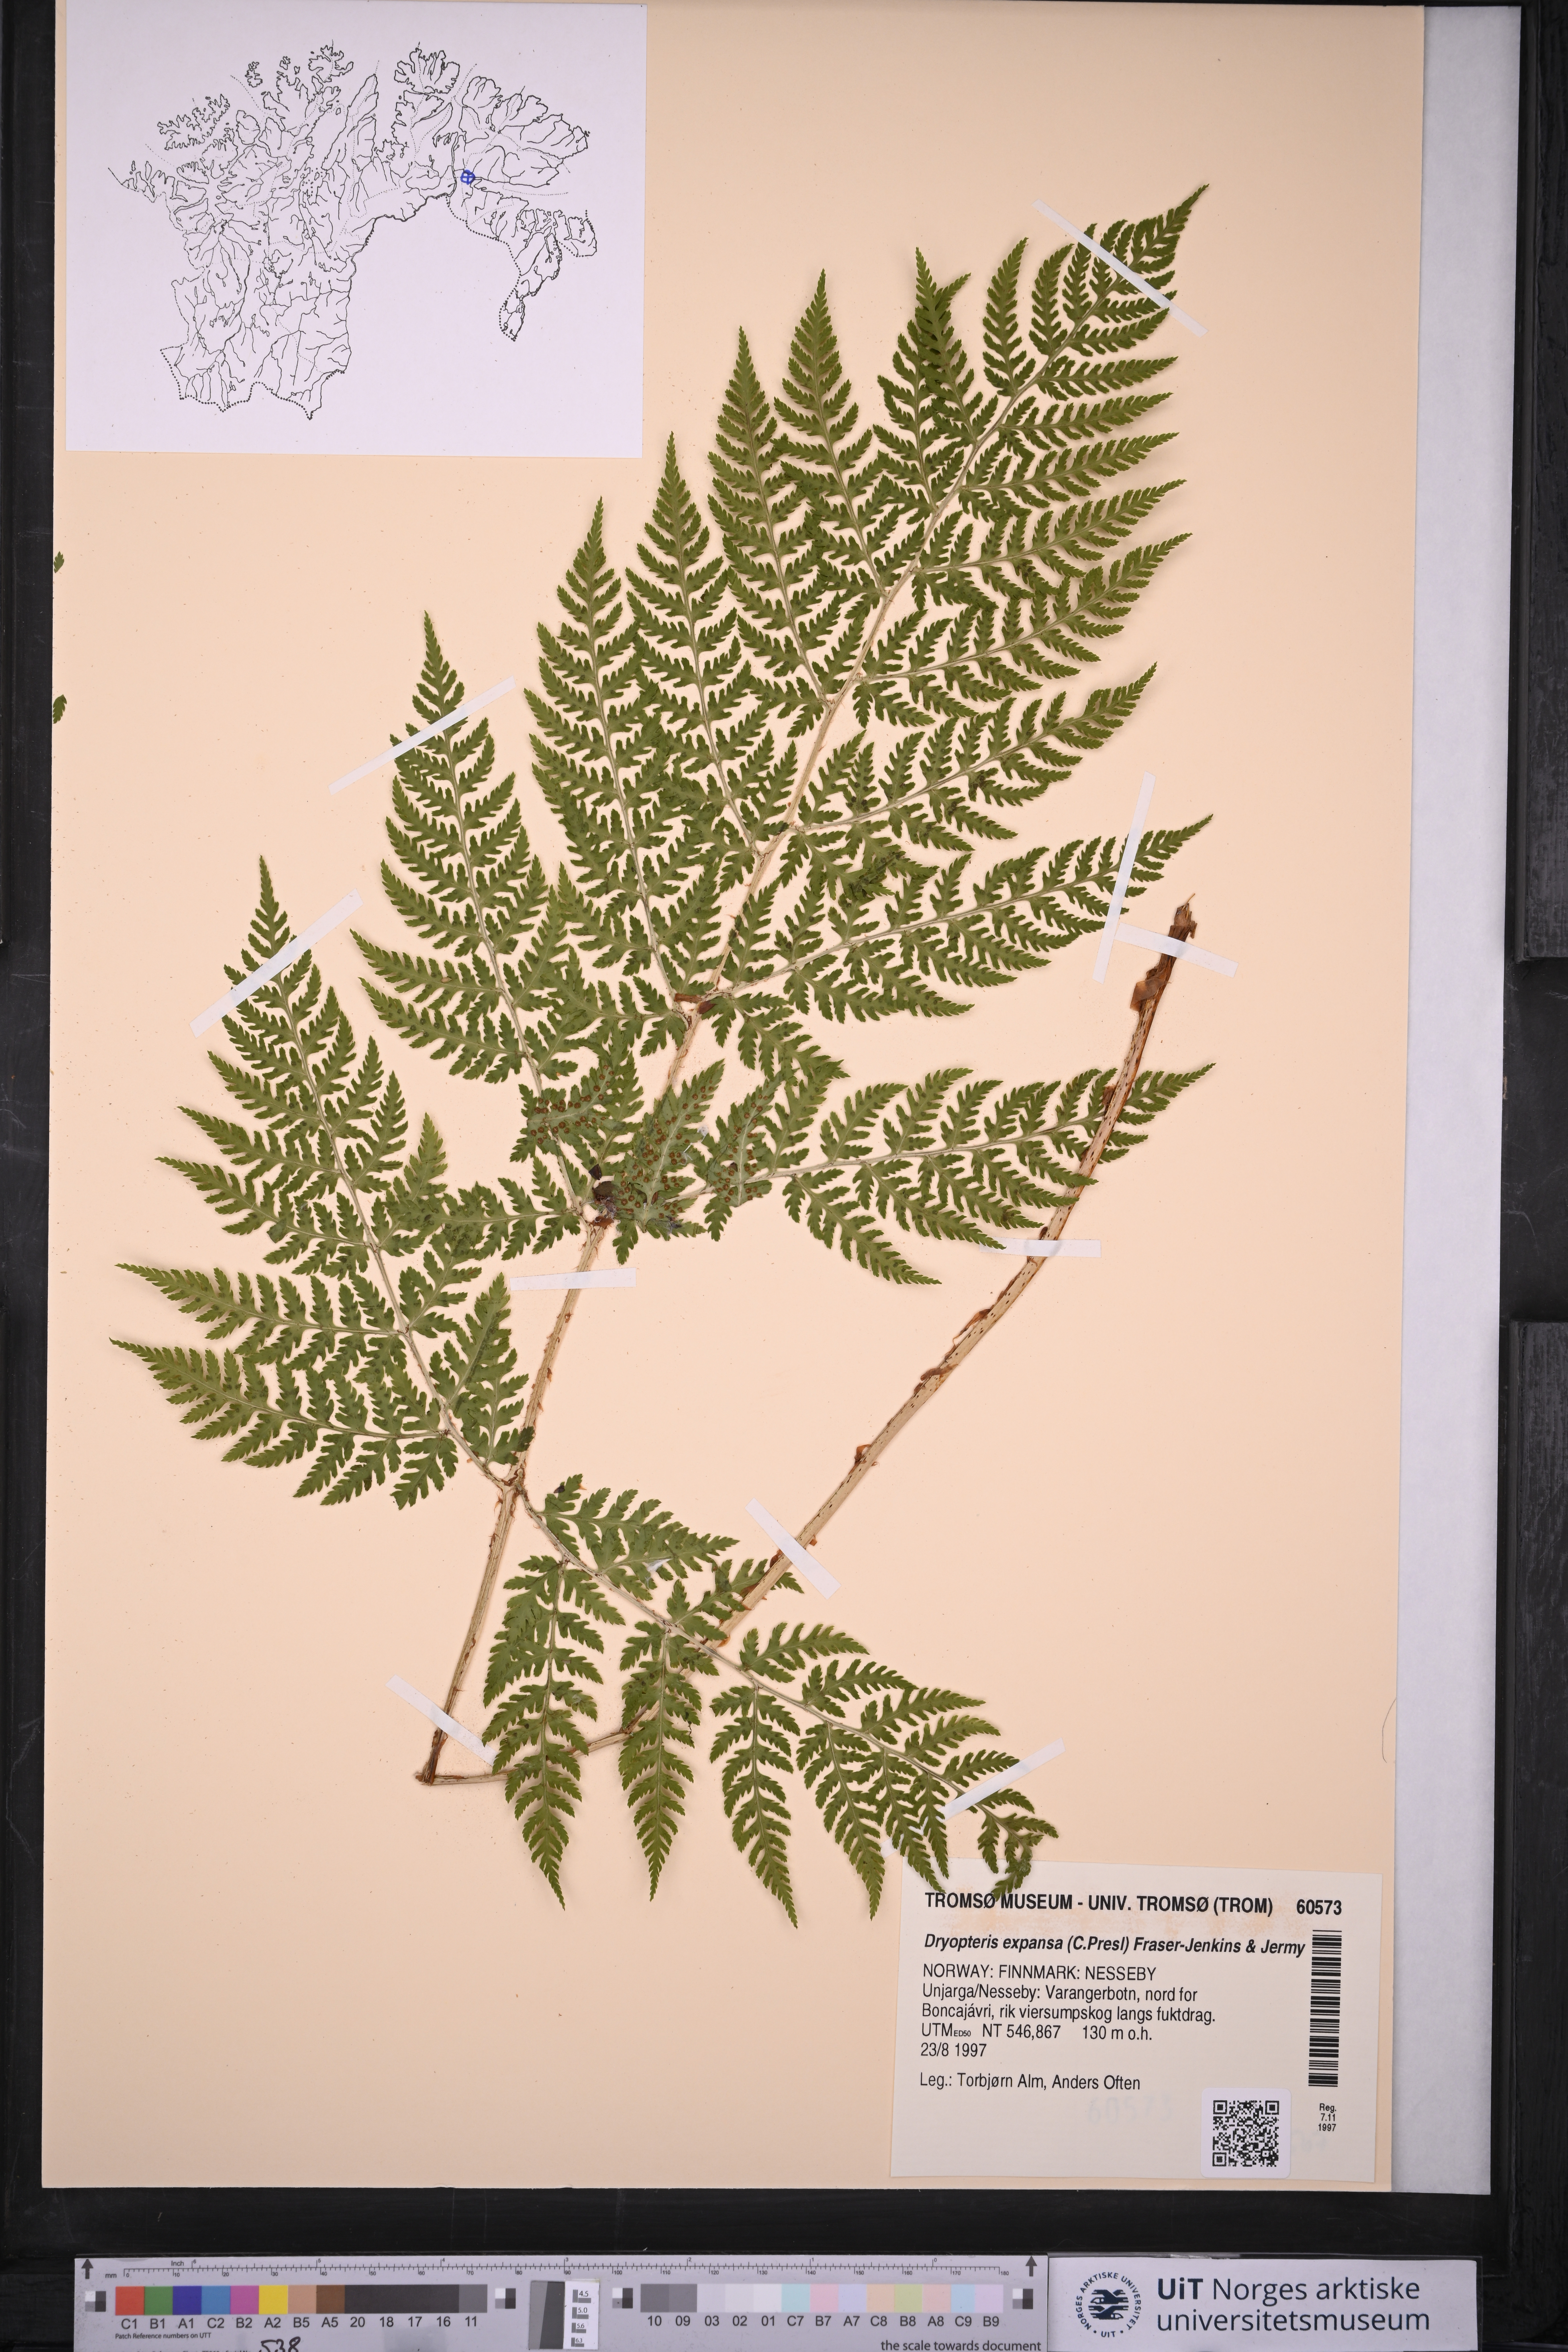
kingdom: Plantae
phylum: Tracheophyta
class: Polypodiopsida
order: Polypodiales
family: Dryopteridaceae
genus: Dryopteris
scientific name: Dryopteris expansa
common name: Northern buckler fern
